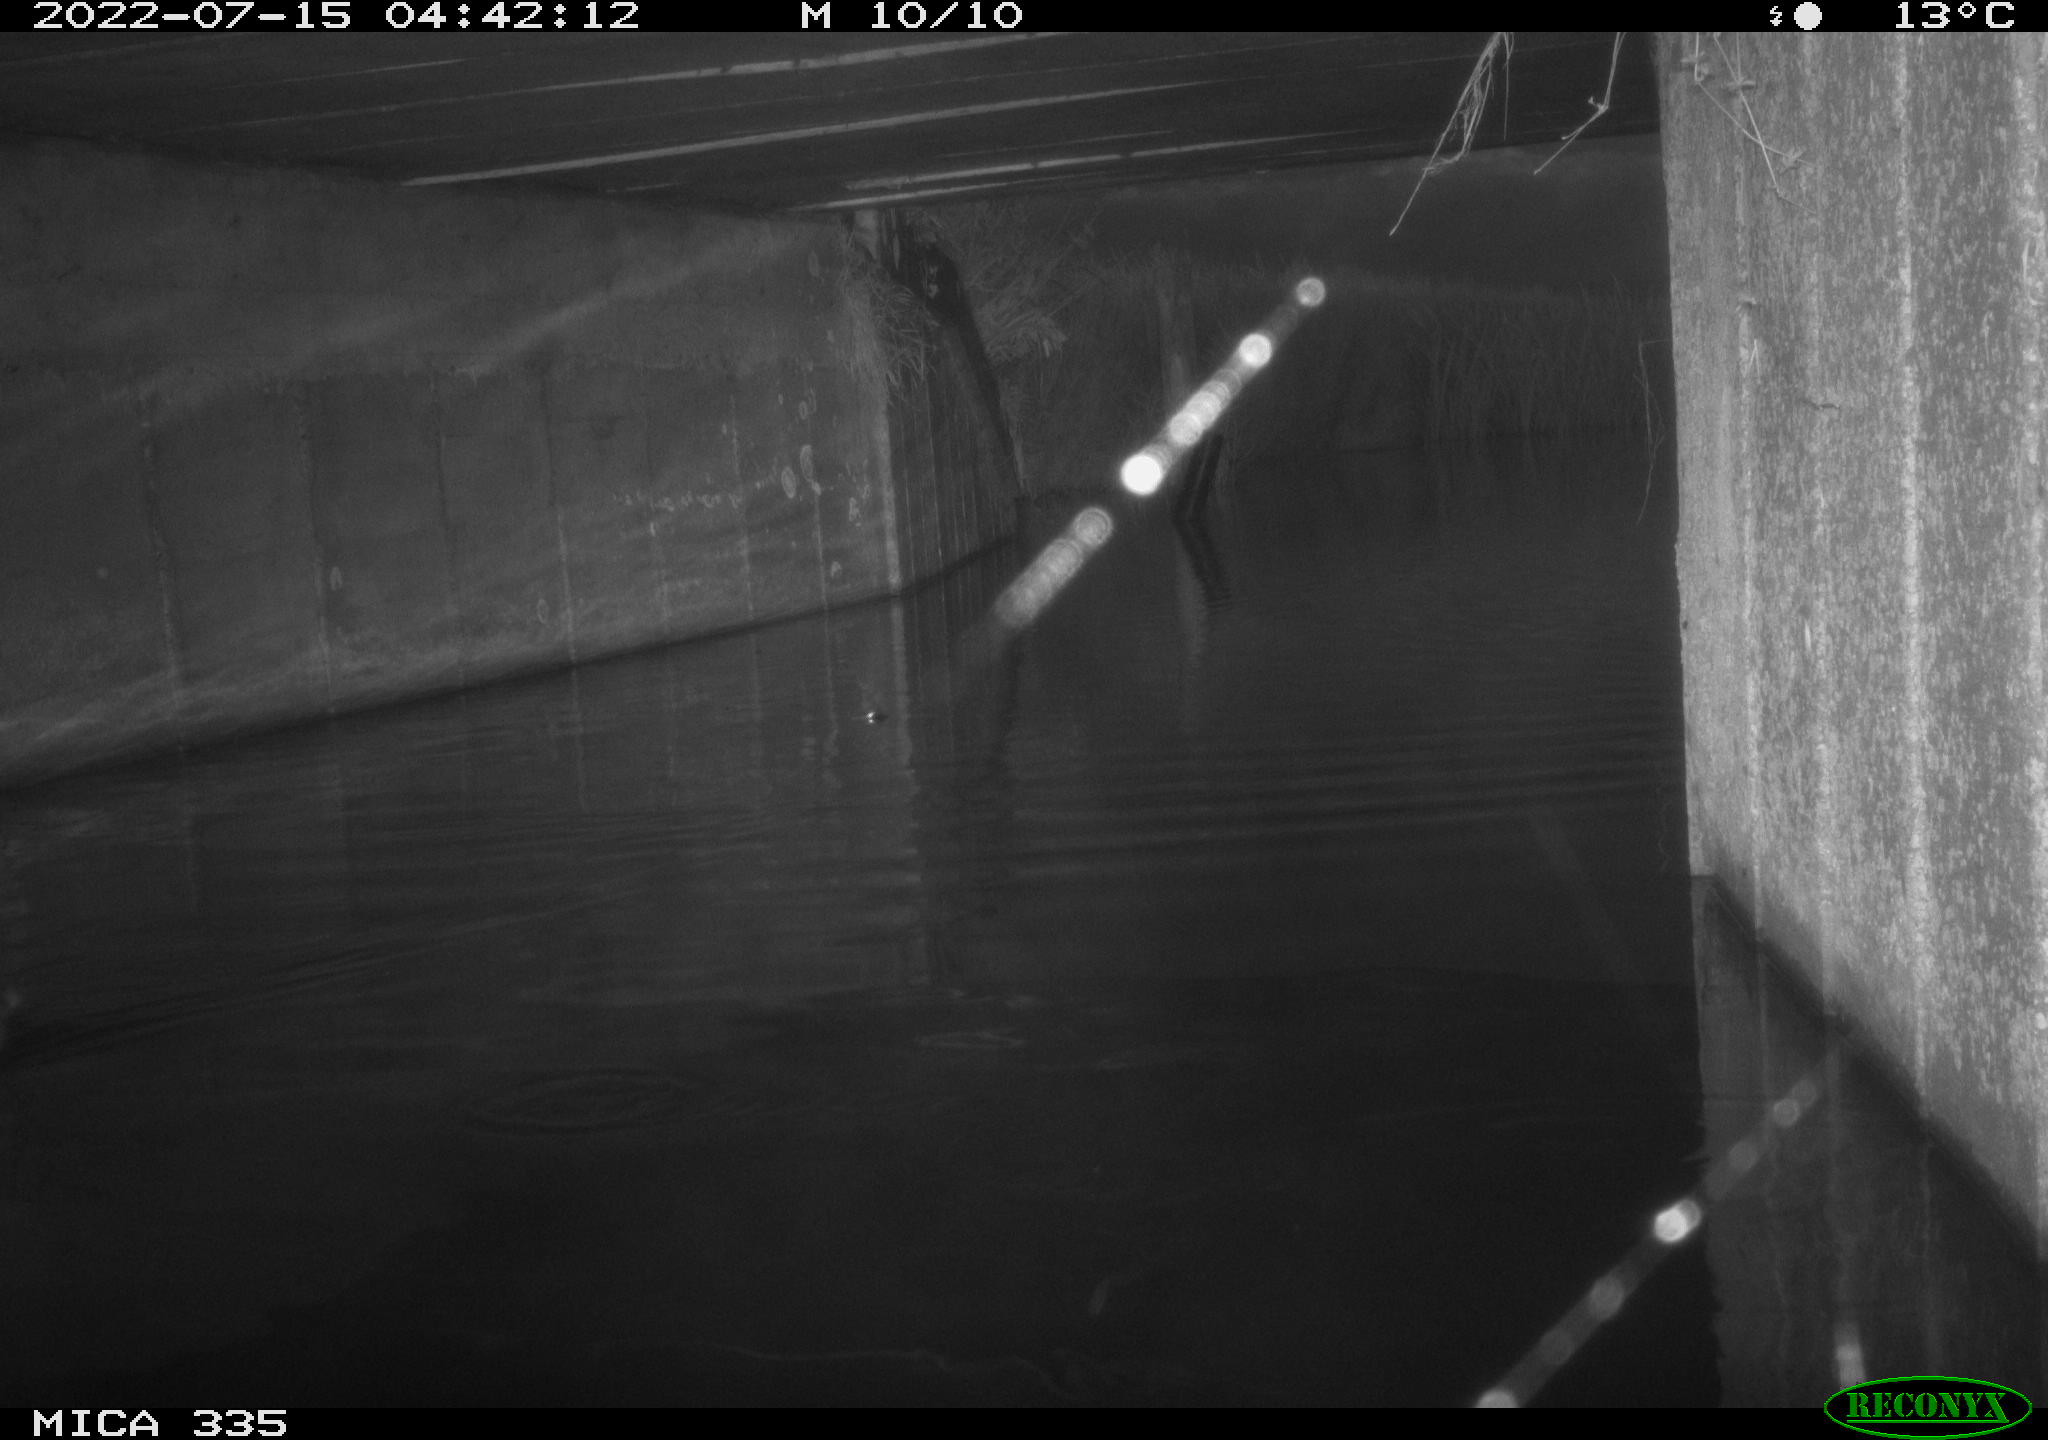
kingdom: Animalia
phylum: Chordata
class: Aves
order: Anseriformes
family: Anatidae
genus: Anas
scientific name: Anas platyrhynchos
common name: Mallard
